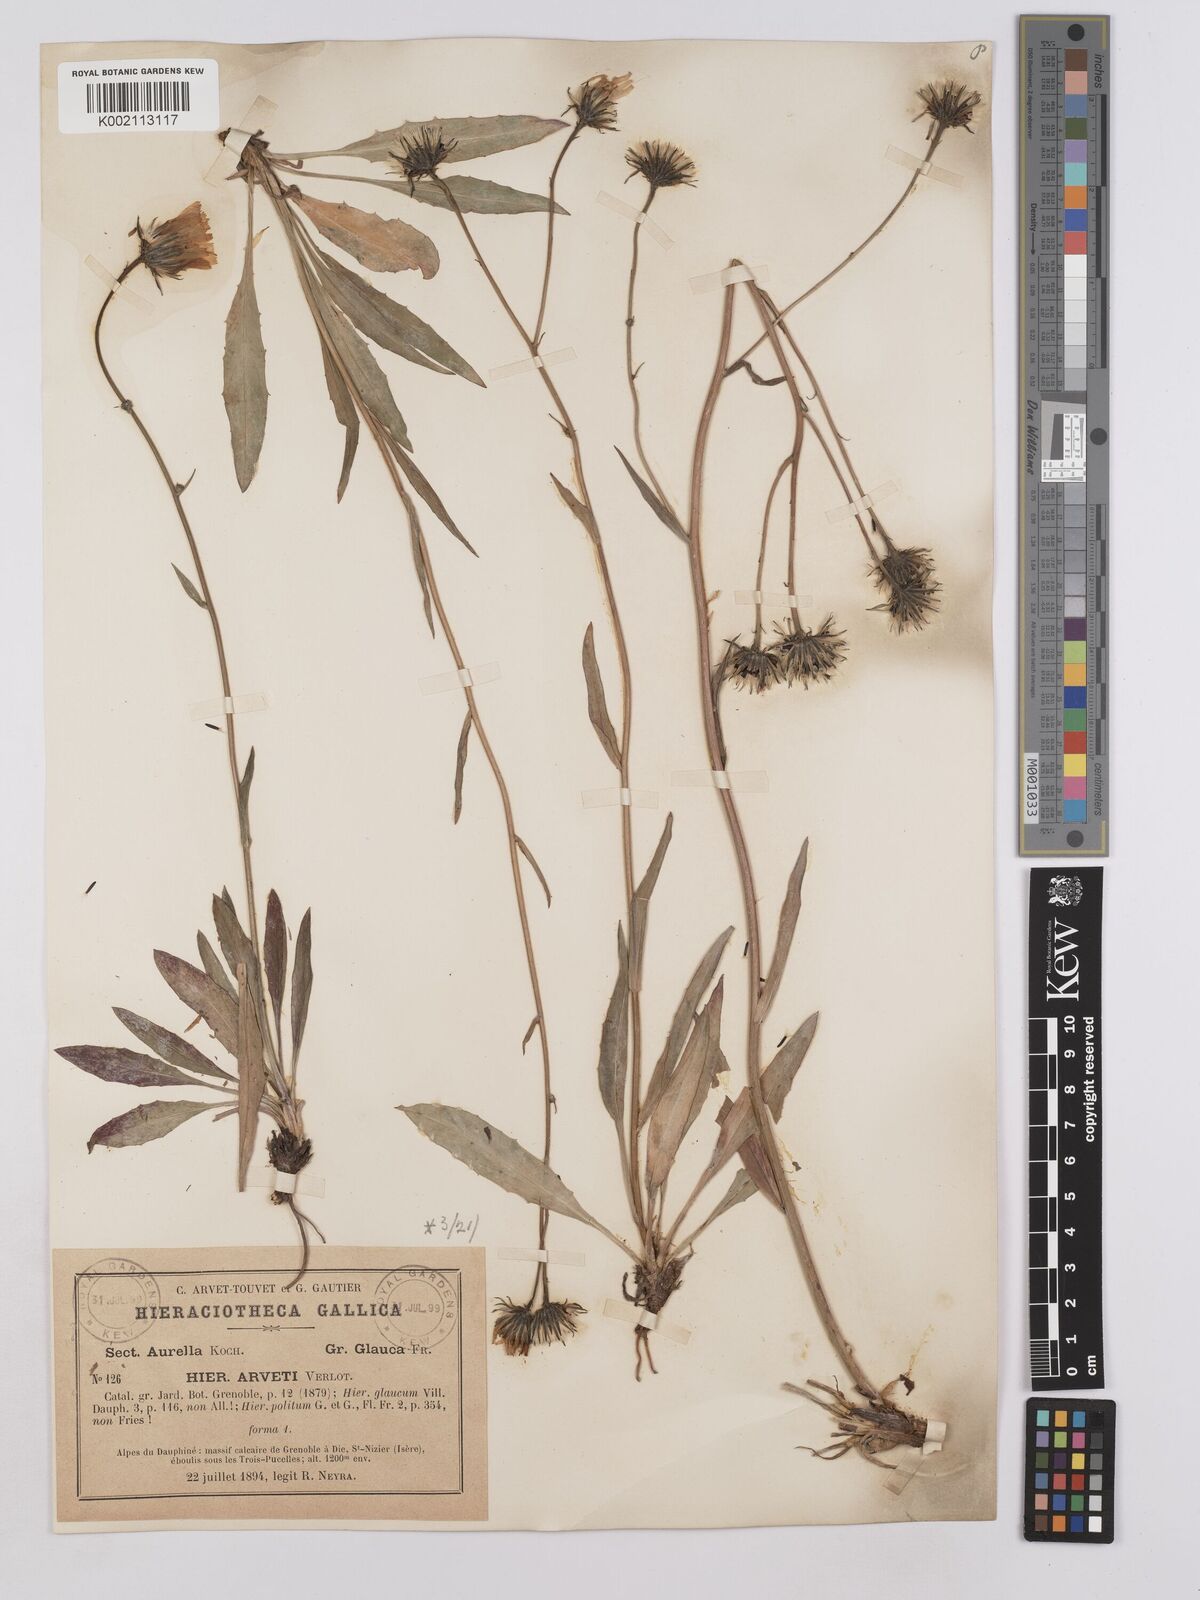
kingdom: Plantae
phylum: Tracheophyta
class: Magnoliopsida
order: Asterales
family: Asteraceae
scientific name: Asteraceae
